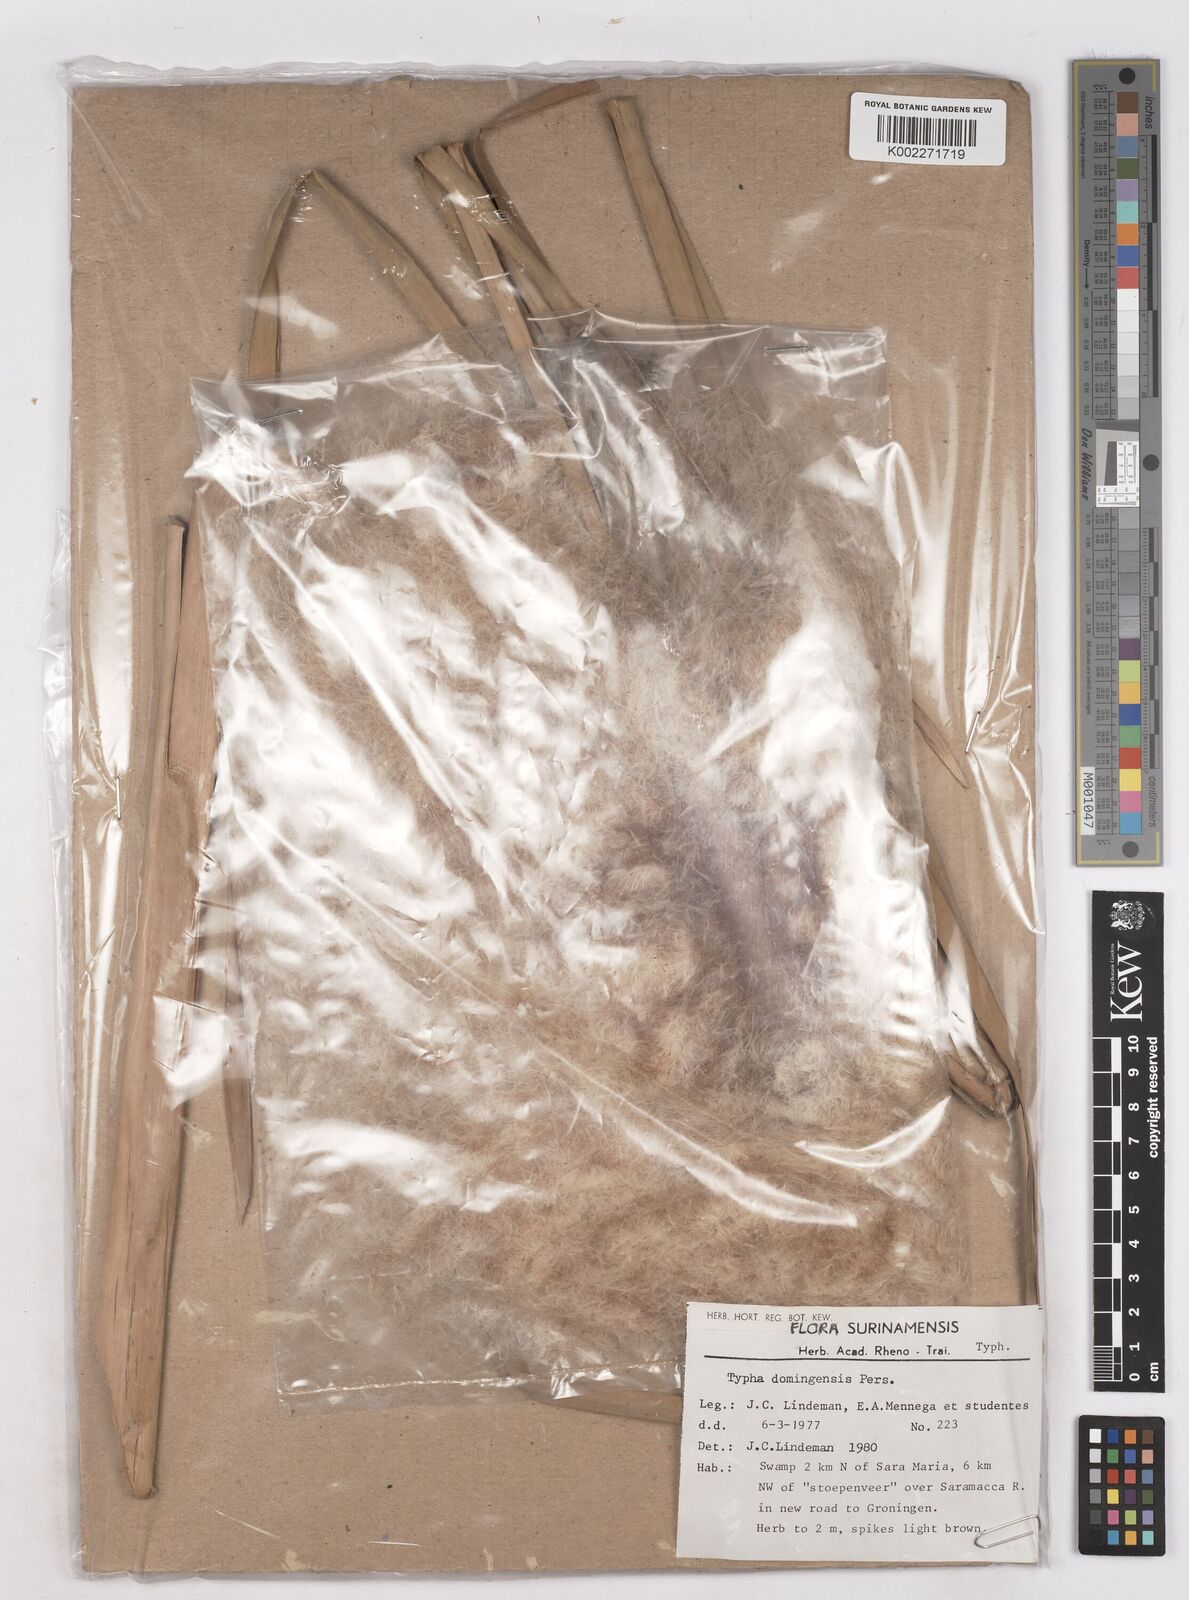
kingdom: Plantae
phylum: Tracheophyta
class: Liliopsida
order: Poales
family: Typhaceae
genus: Typha
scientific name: Typha domingensis
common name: Southern cattail
